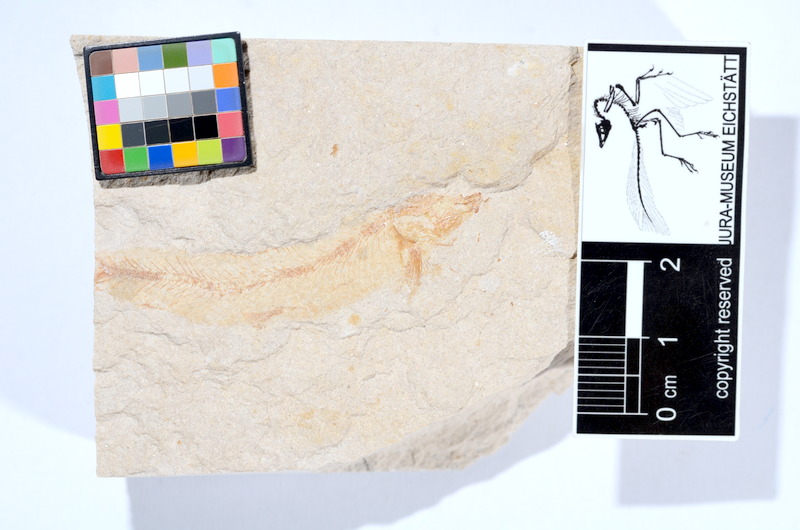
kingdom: Animalia
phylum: Chordata
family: Ascalaboidae
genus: Tharsis
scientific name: Tharsis dubius
